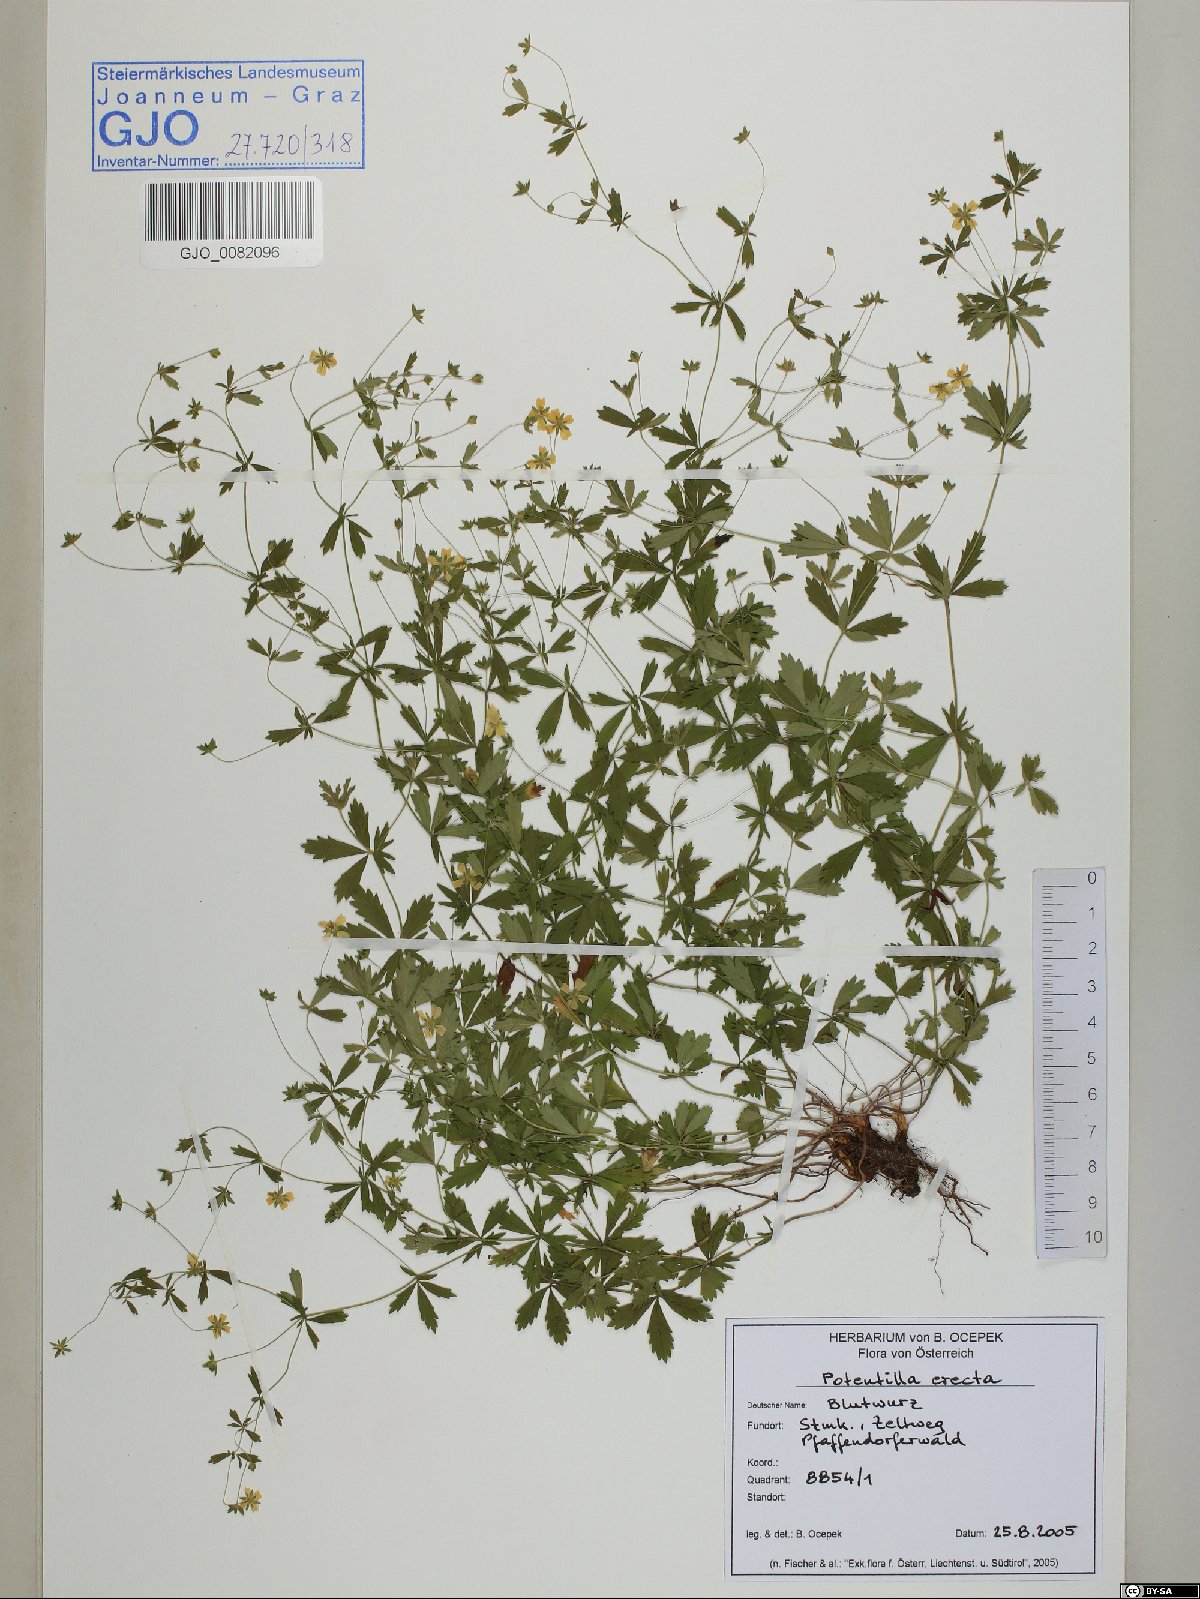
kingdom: Plantae
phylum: Tracheophyta
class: Magnoliopsida
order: Rosales
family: Rosaceae
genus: Potentilla
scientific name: Potentilla erecta
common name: Tormentil
